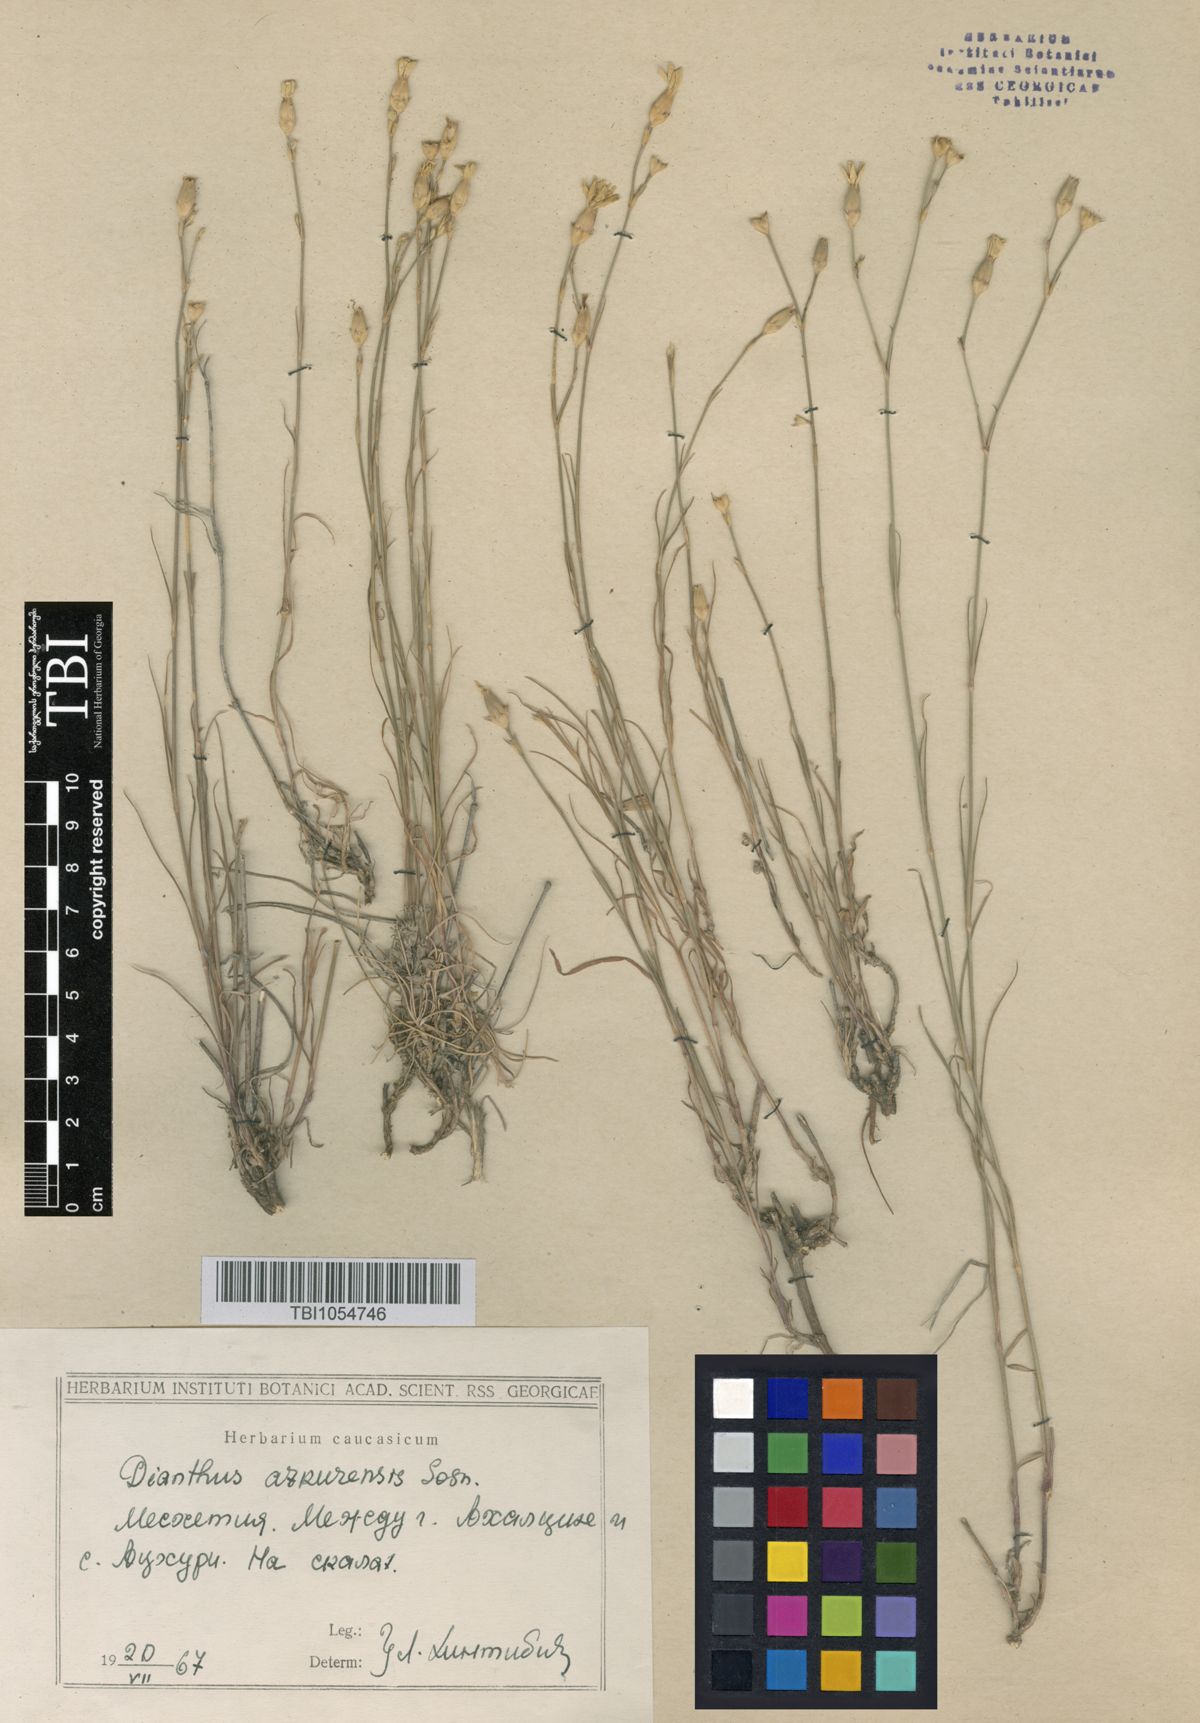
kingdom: Plantae
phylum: Tracheophyta
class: Magnoliopsida
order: Caryophyllales
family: Caryophyllaceae
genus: Dianthus
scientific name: Dianthus
